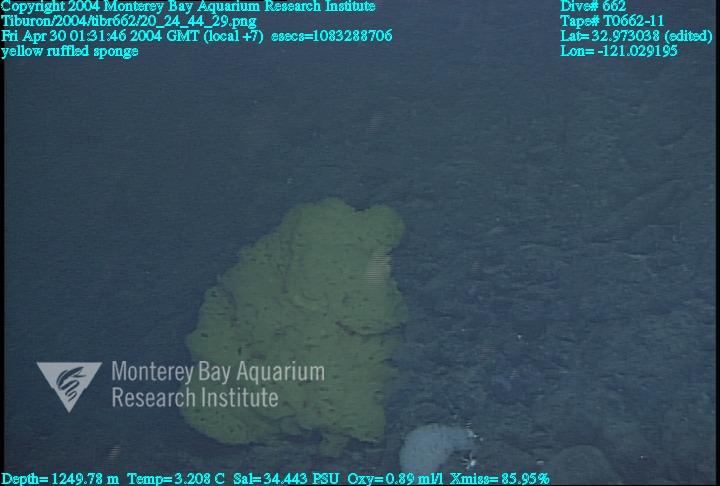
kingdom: Animalia
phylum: Porifera
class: Hexactinellida
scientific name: Hexactinellida
